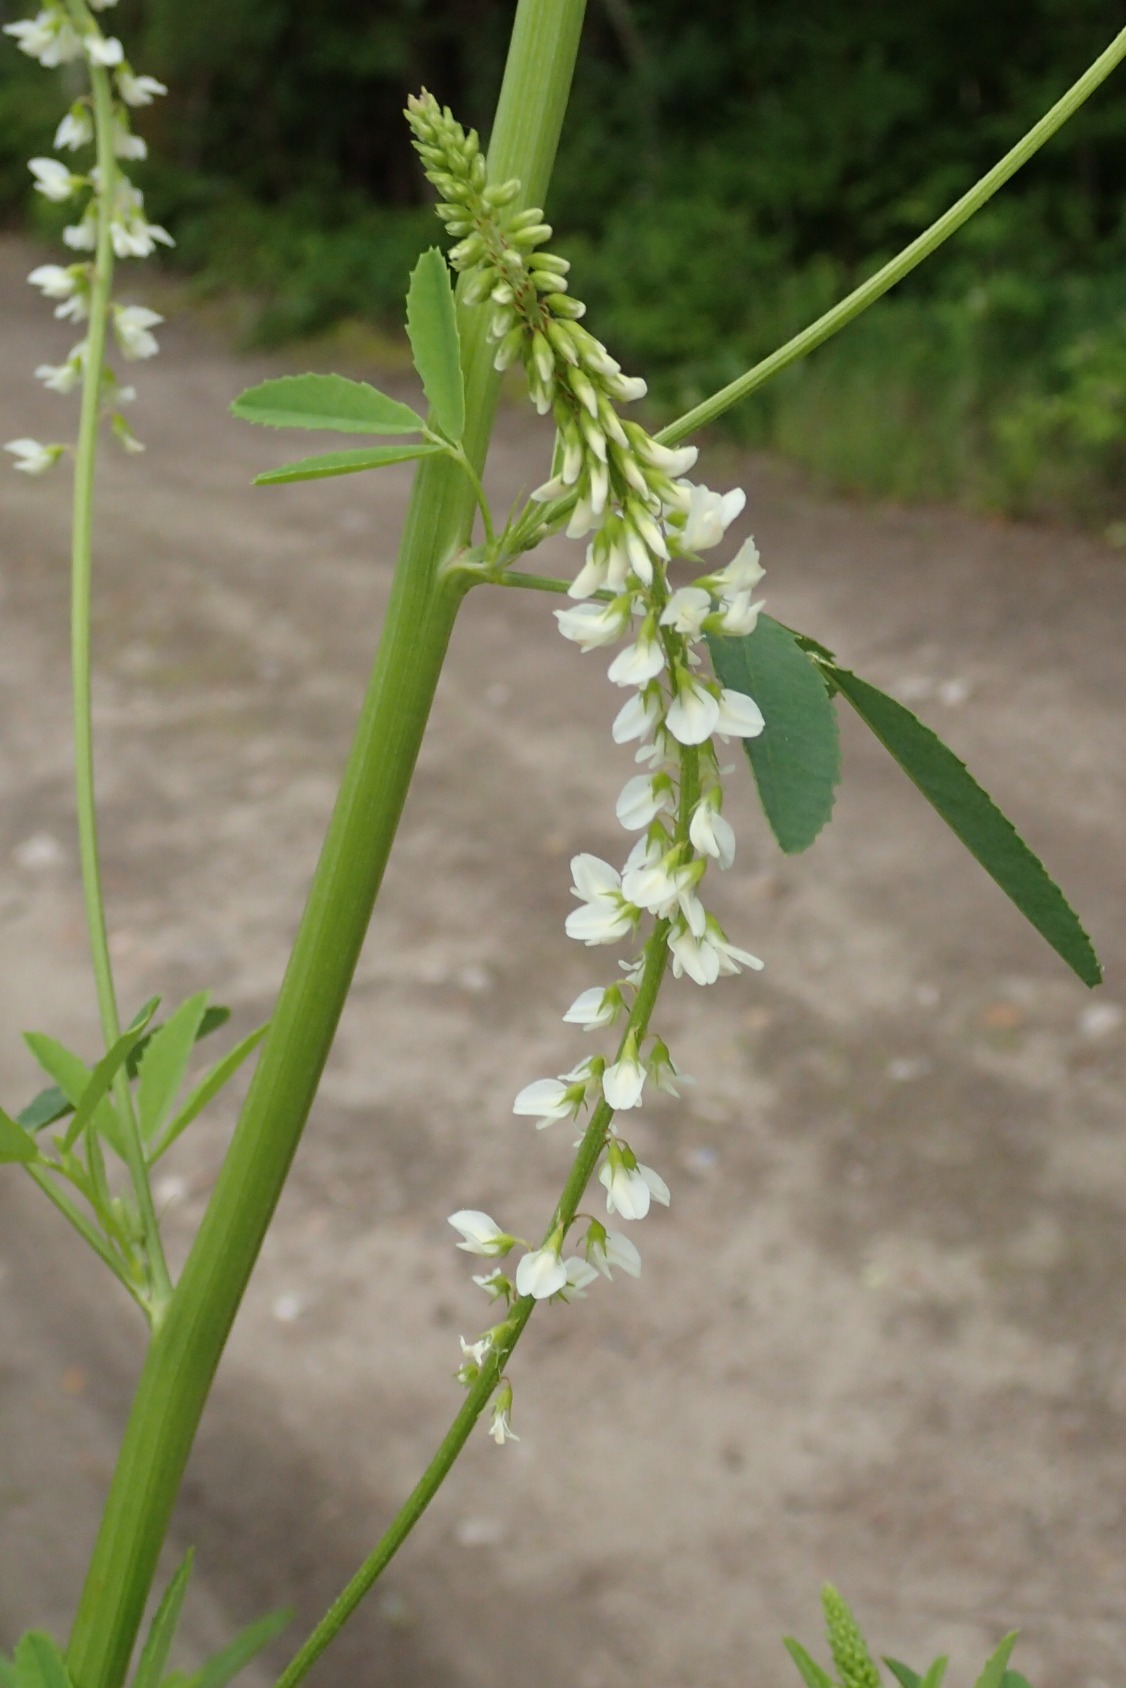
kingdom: Plantae
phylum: Tracheophyta
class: Magnoliopsida
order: Fabales
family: Fabaceae
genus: Melilotus
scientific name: Melilotus albus
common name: Hvid stenkløver
